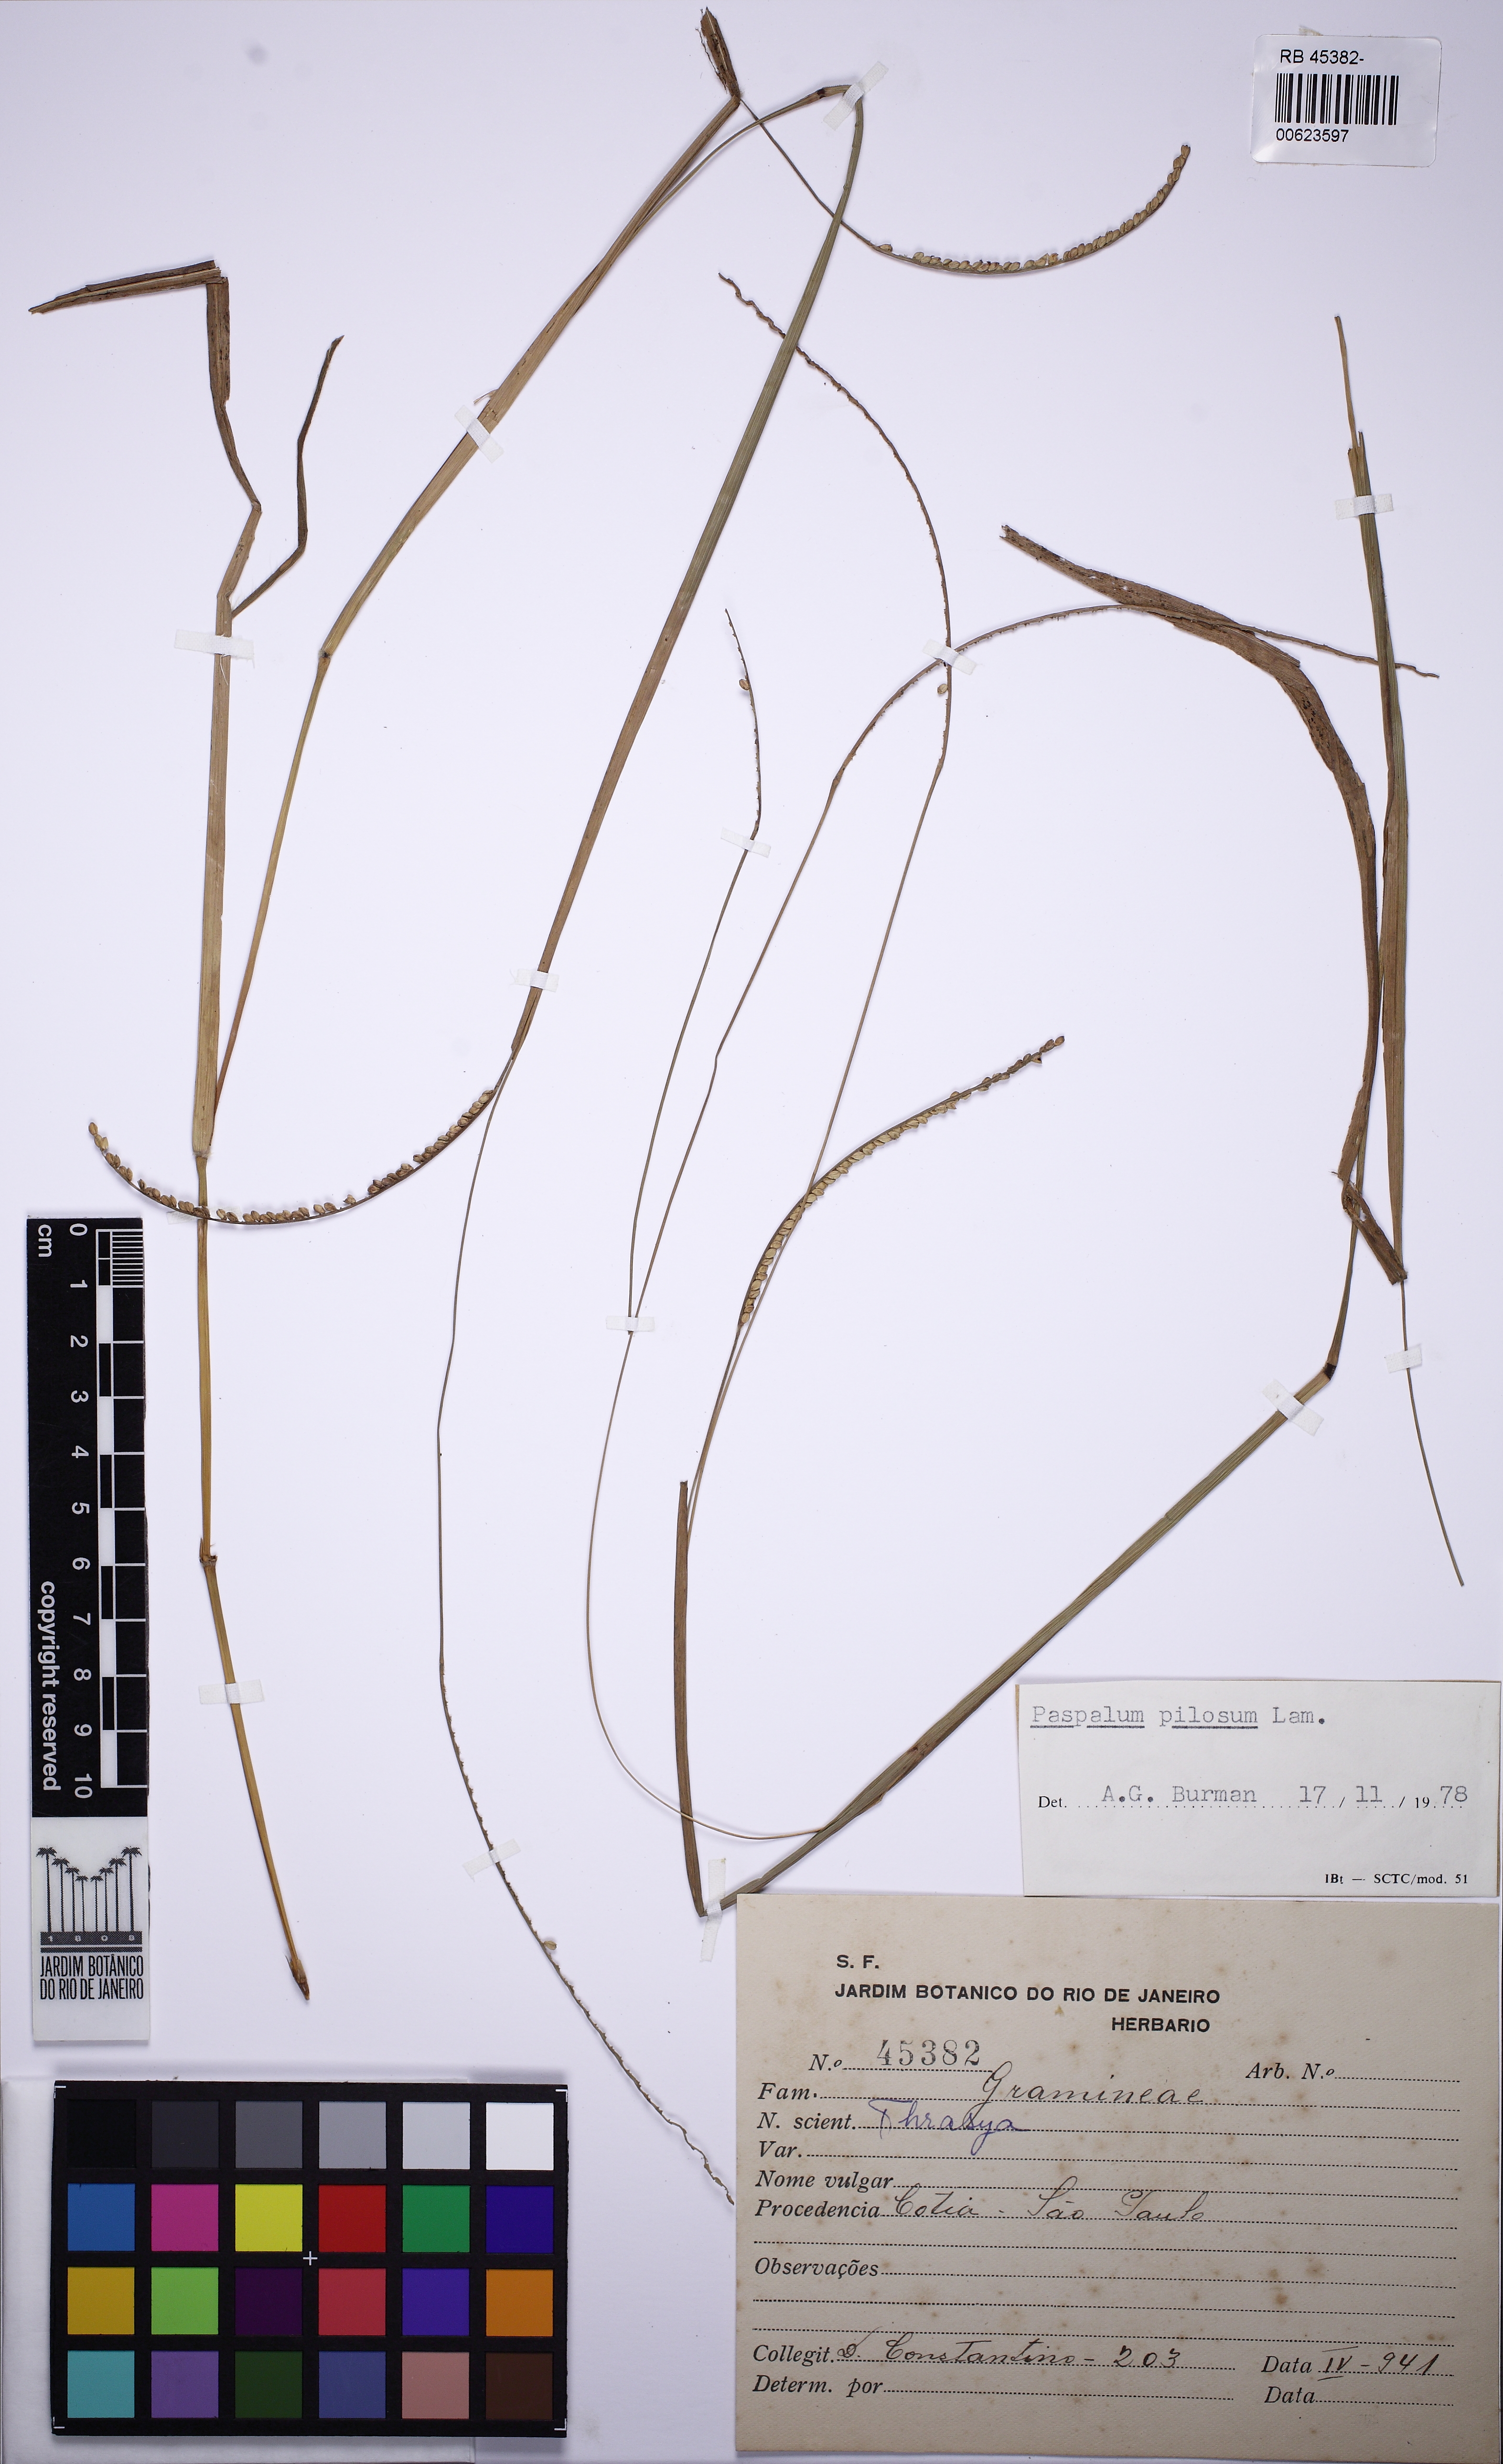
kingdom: Plantae
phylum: Tracheophyta
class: Liliopsida
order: Poales
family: Poaceae
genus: Paspalum
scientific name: Paspalum pilosum
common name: Crowngrass
